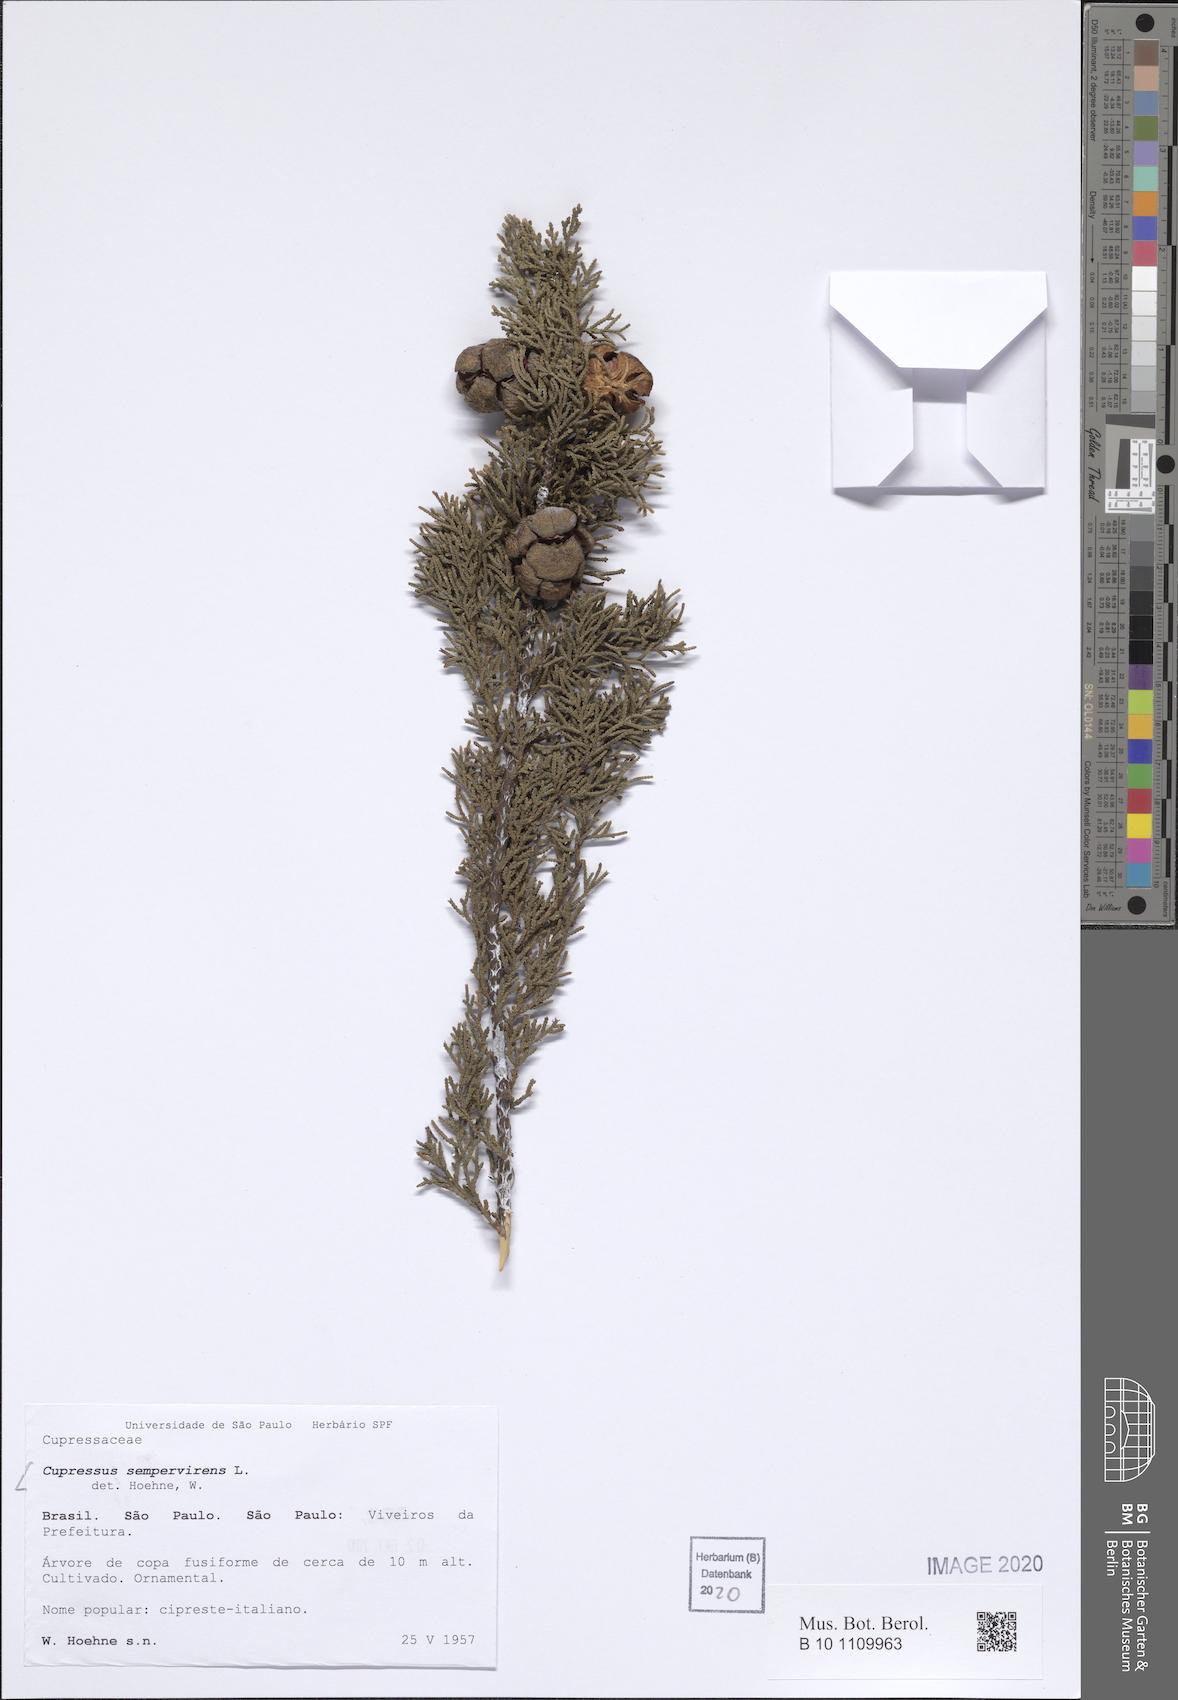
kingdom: Plantae
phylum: Tracheophyta
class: Pinopsida
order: Pinales
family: Cupressaceae
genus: Cupressus
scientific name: Cupressus sempervirens
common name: Italian cypress
